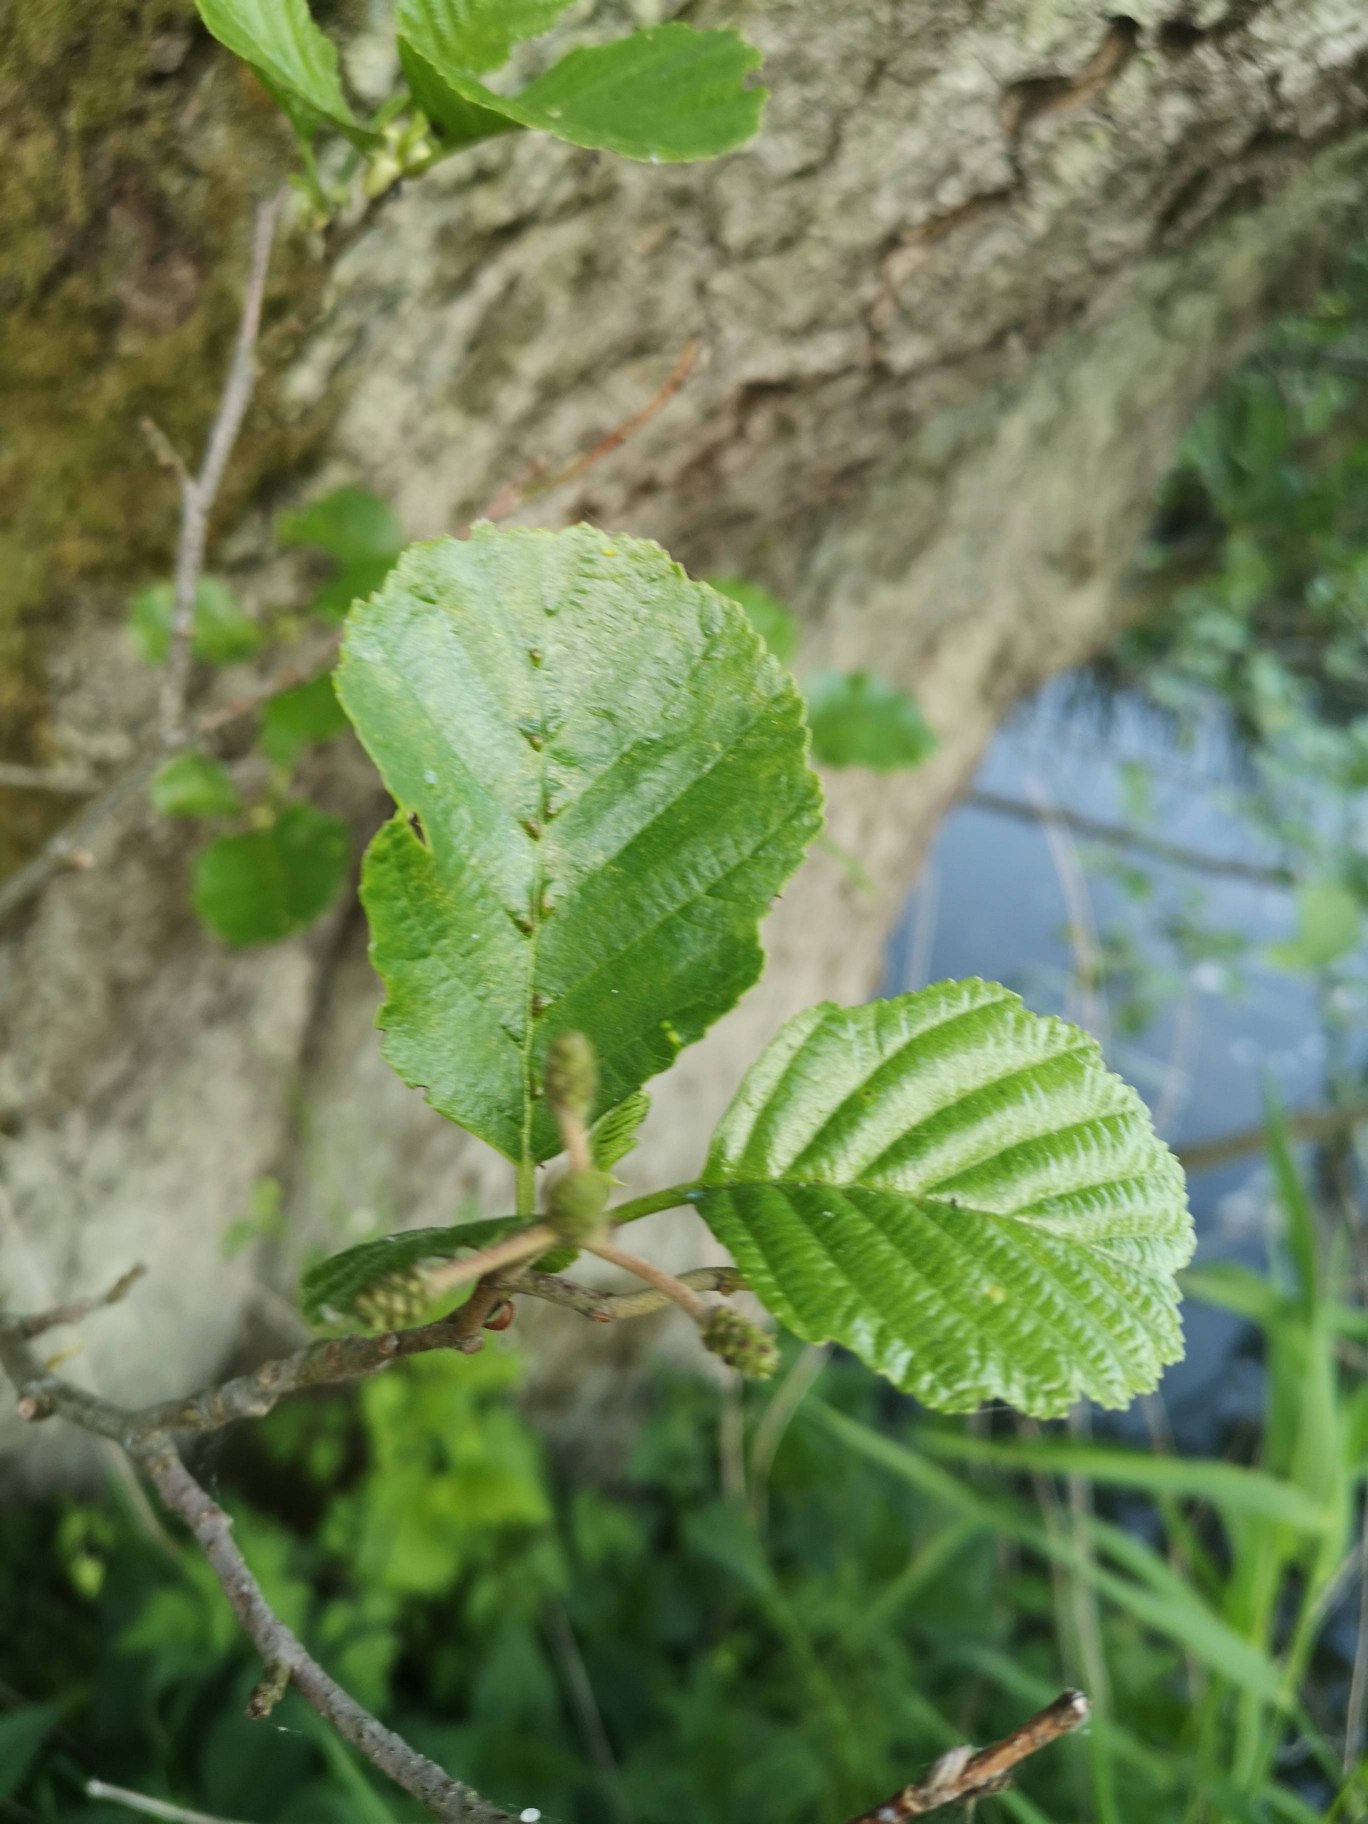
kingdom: Plantae
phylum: Tracheophyta
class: Magnoliopsida
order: Fagales
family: Betulaceae
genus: Alnus
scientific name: Alnus glutinosa
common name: Rød-el
